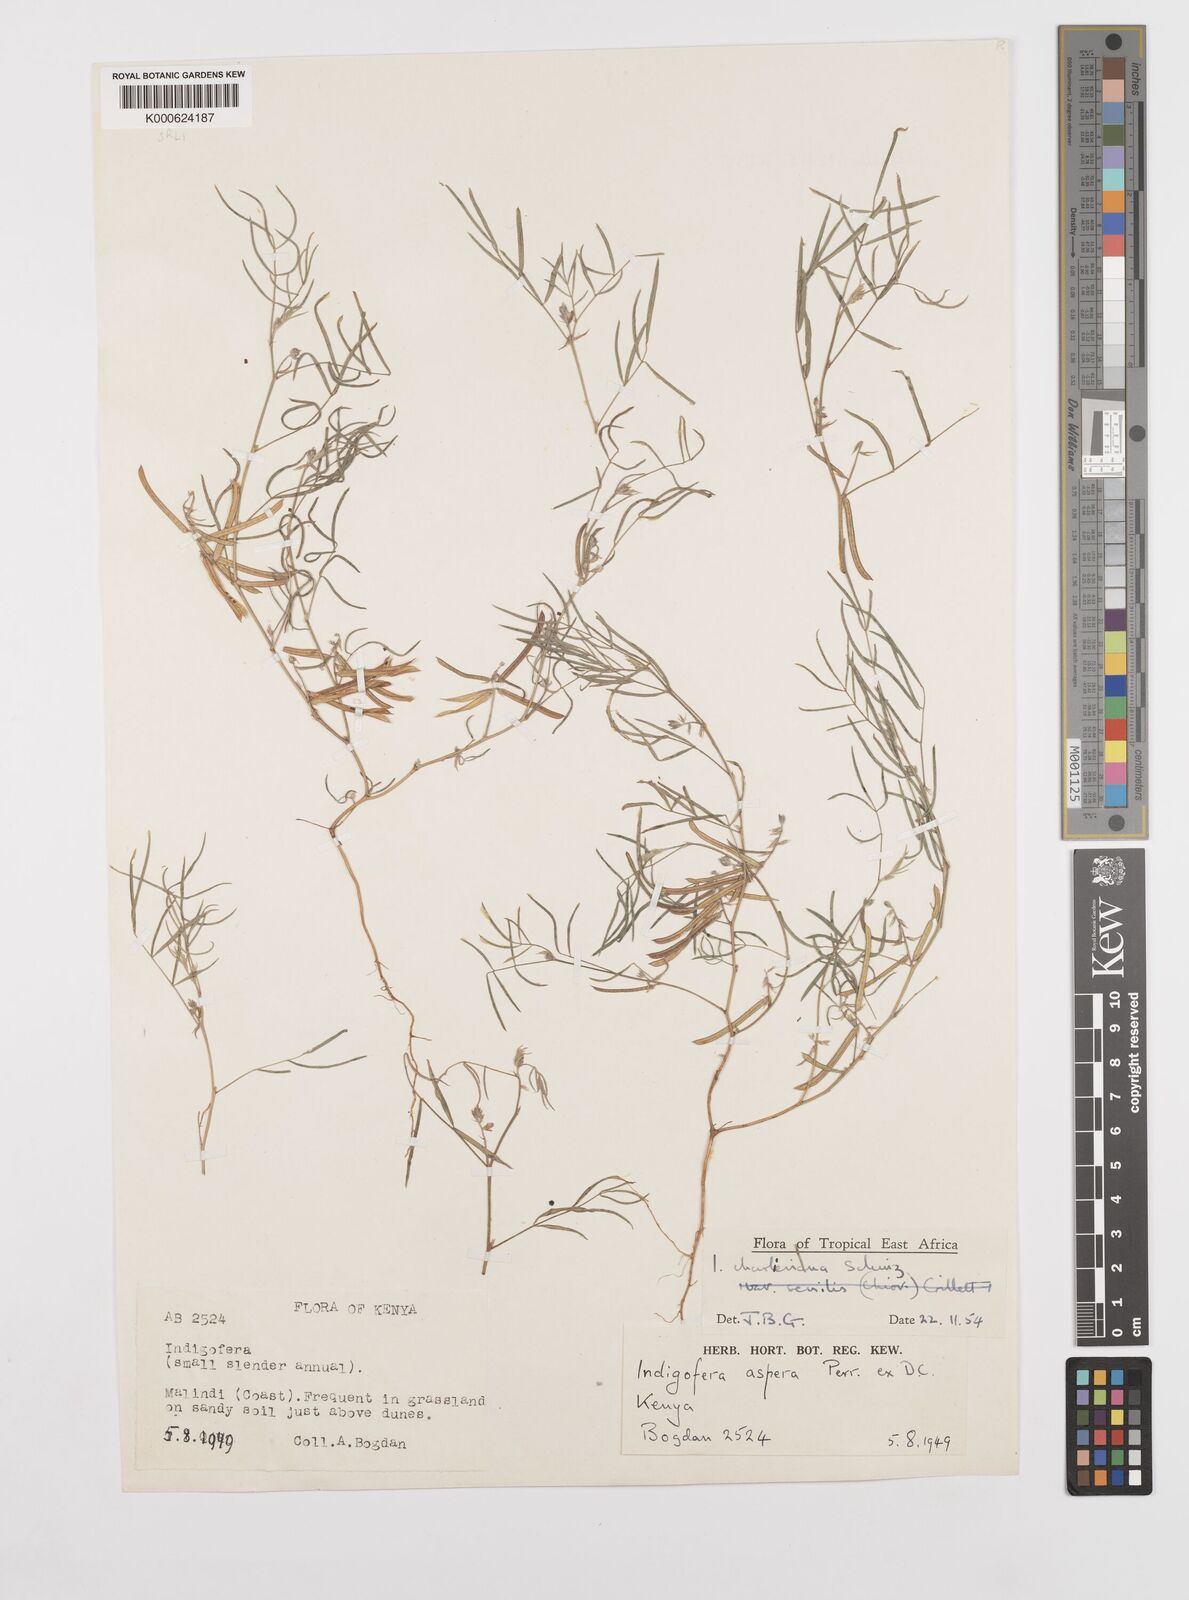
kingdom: Plantae
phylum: Tracheophyta
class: Magnoliopsida
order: Fabales
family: Fabaceae
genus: Indigofera
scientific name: Indigofera charlieriana
